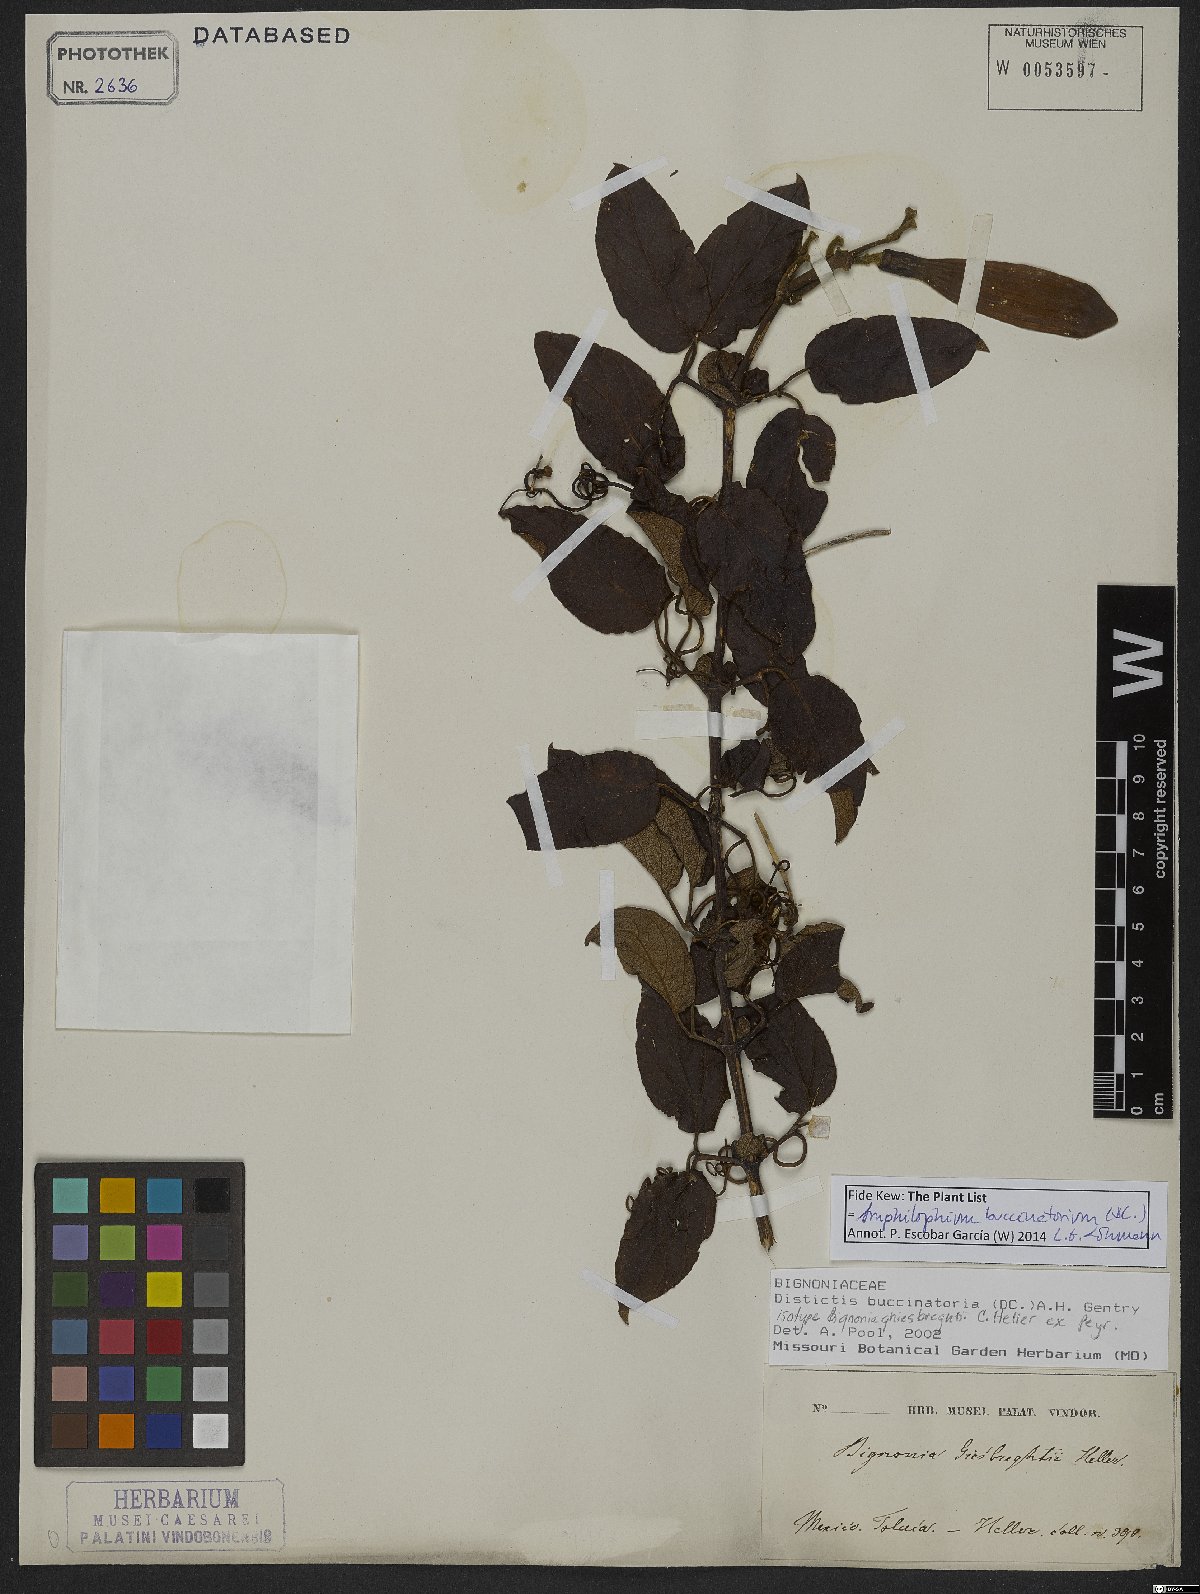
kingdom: Plantae
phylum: Tracheophyta
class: Magnoliopsida
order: Lamiales
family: Bignoniaceae
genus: Amphilophium
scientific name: Amphilophium buccinatorium
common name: Mexican blood-flower
